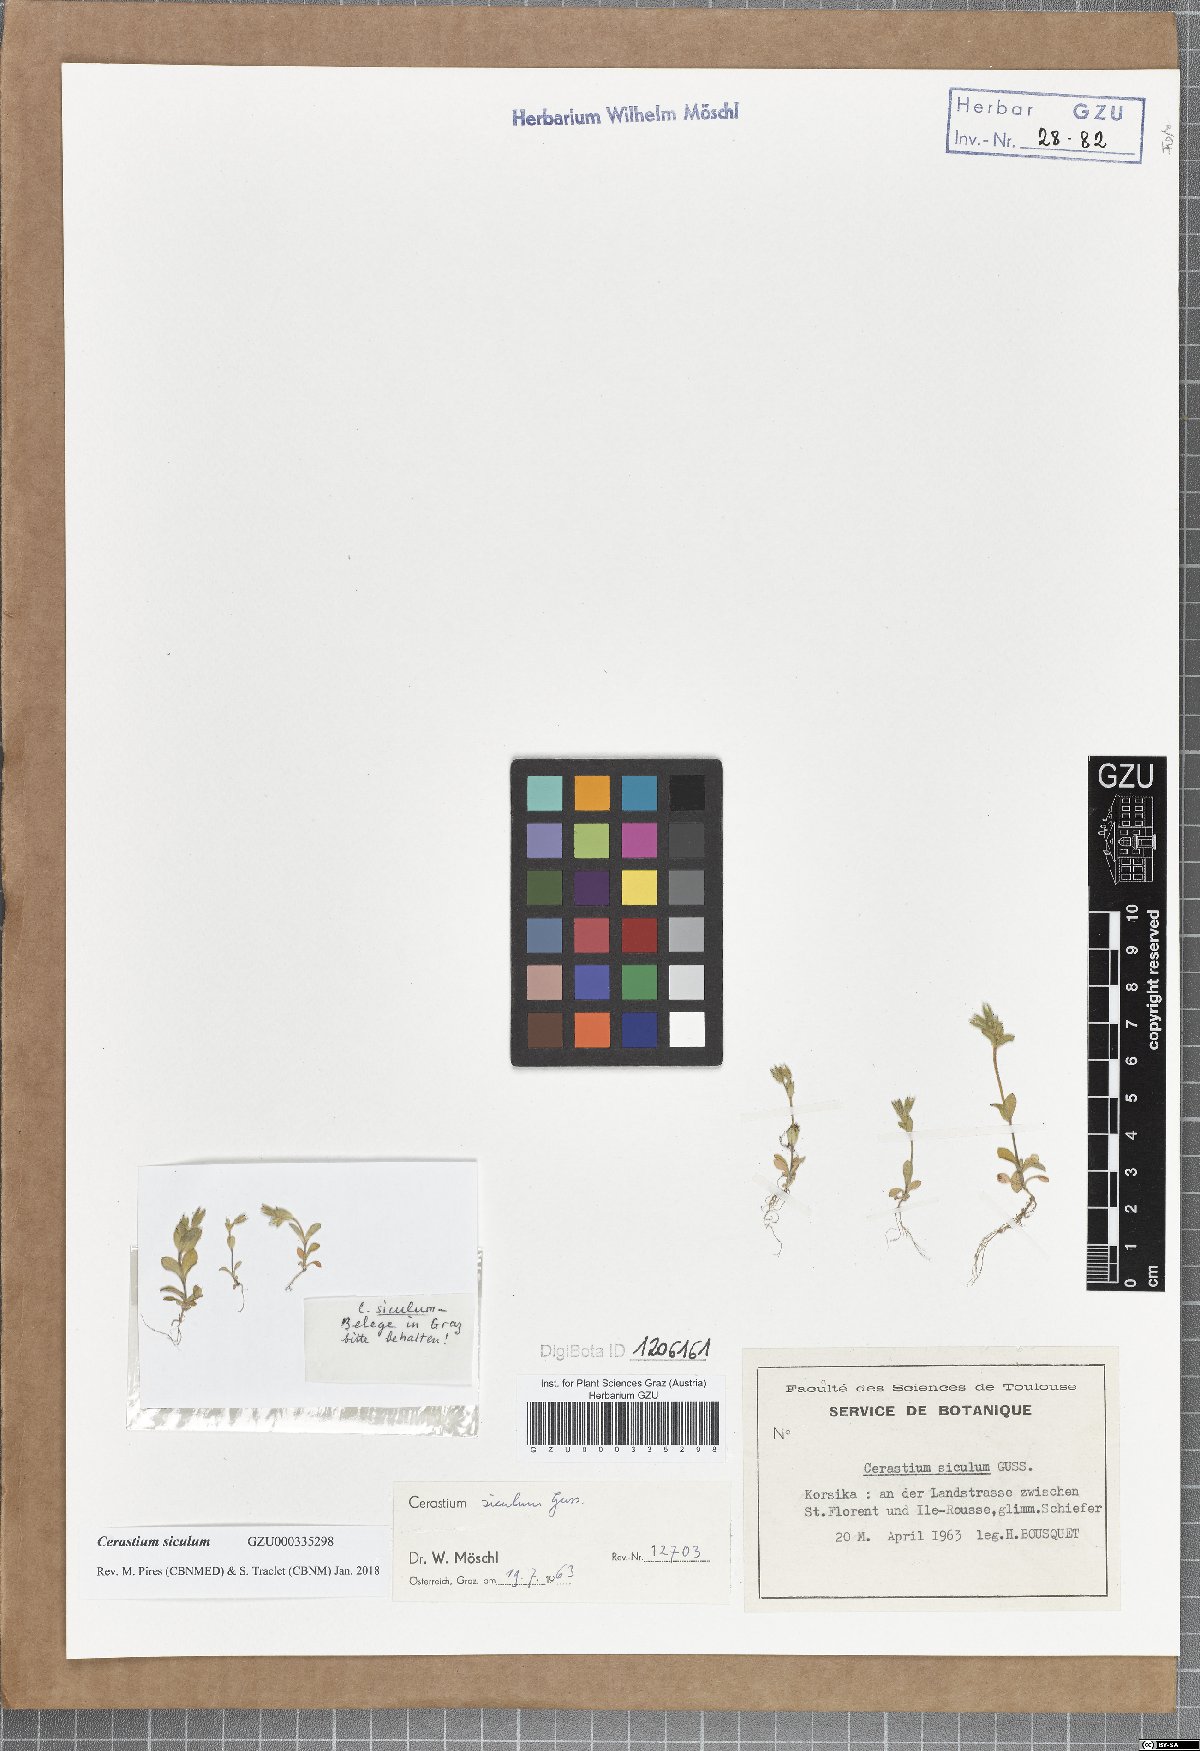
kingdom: Plantae
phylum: Tracheophyta
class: Magnoliopsida
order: Caryophyllales
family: Caryophyllaceae
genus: Cerastium
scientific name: Cerastium siculum
